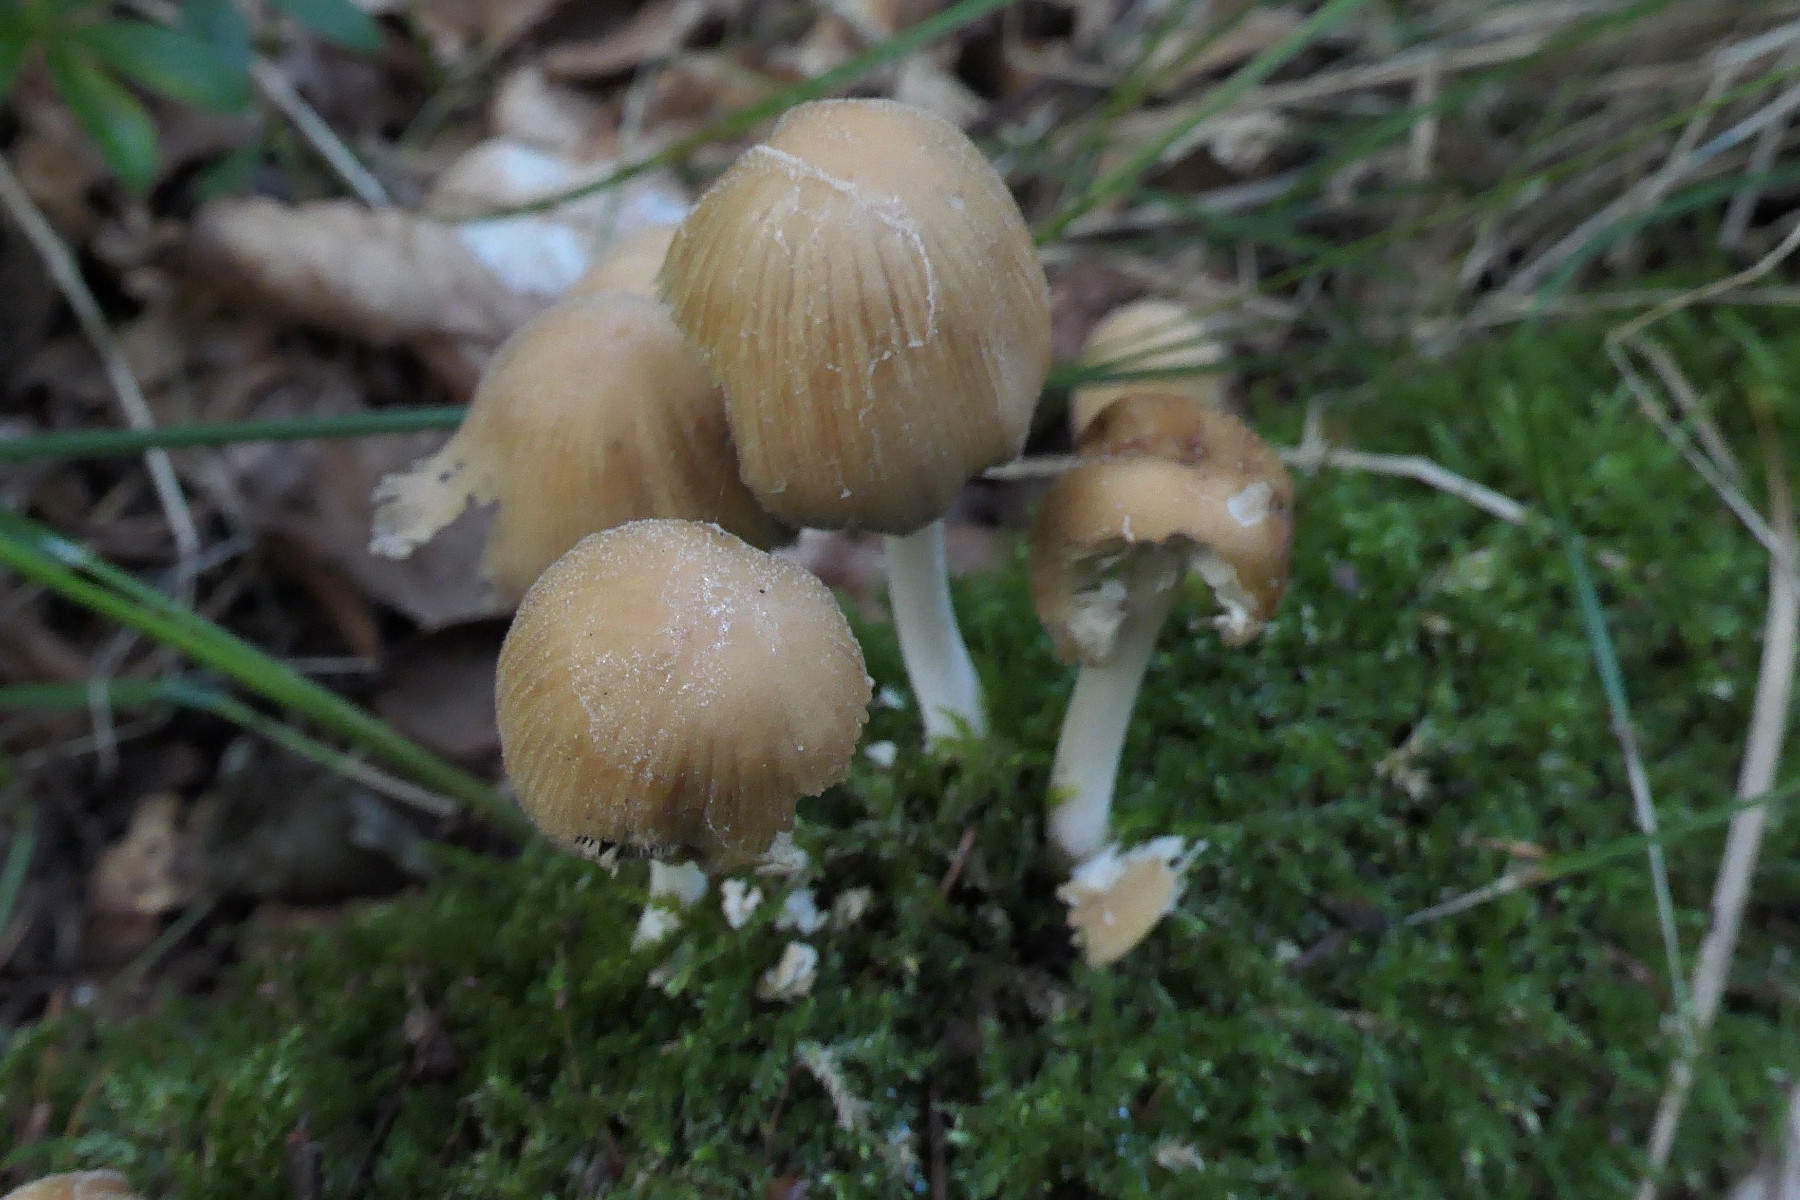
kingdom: Fungi
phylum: Basidiomycota
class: Agaricomycetes
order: Agaricales
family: Psathyrellaceae
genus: Coprinellus
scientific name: Coprinellus micaceus
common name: glimmer-blækhat
